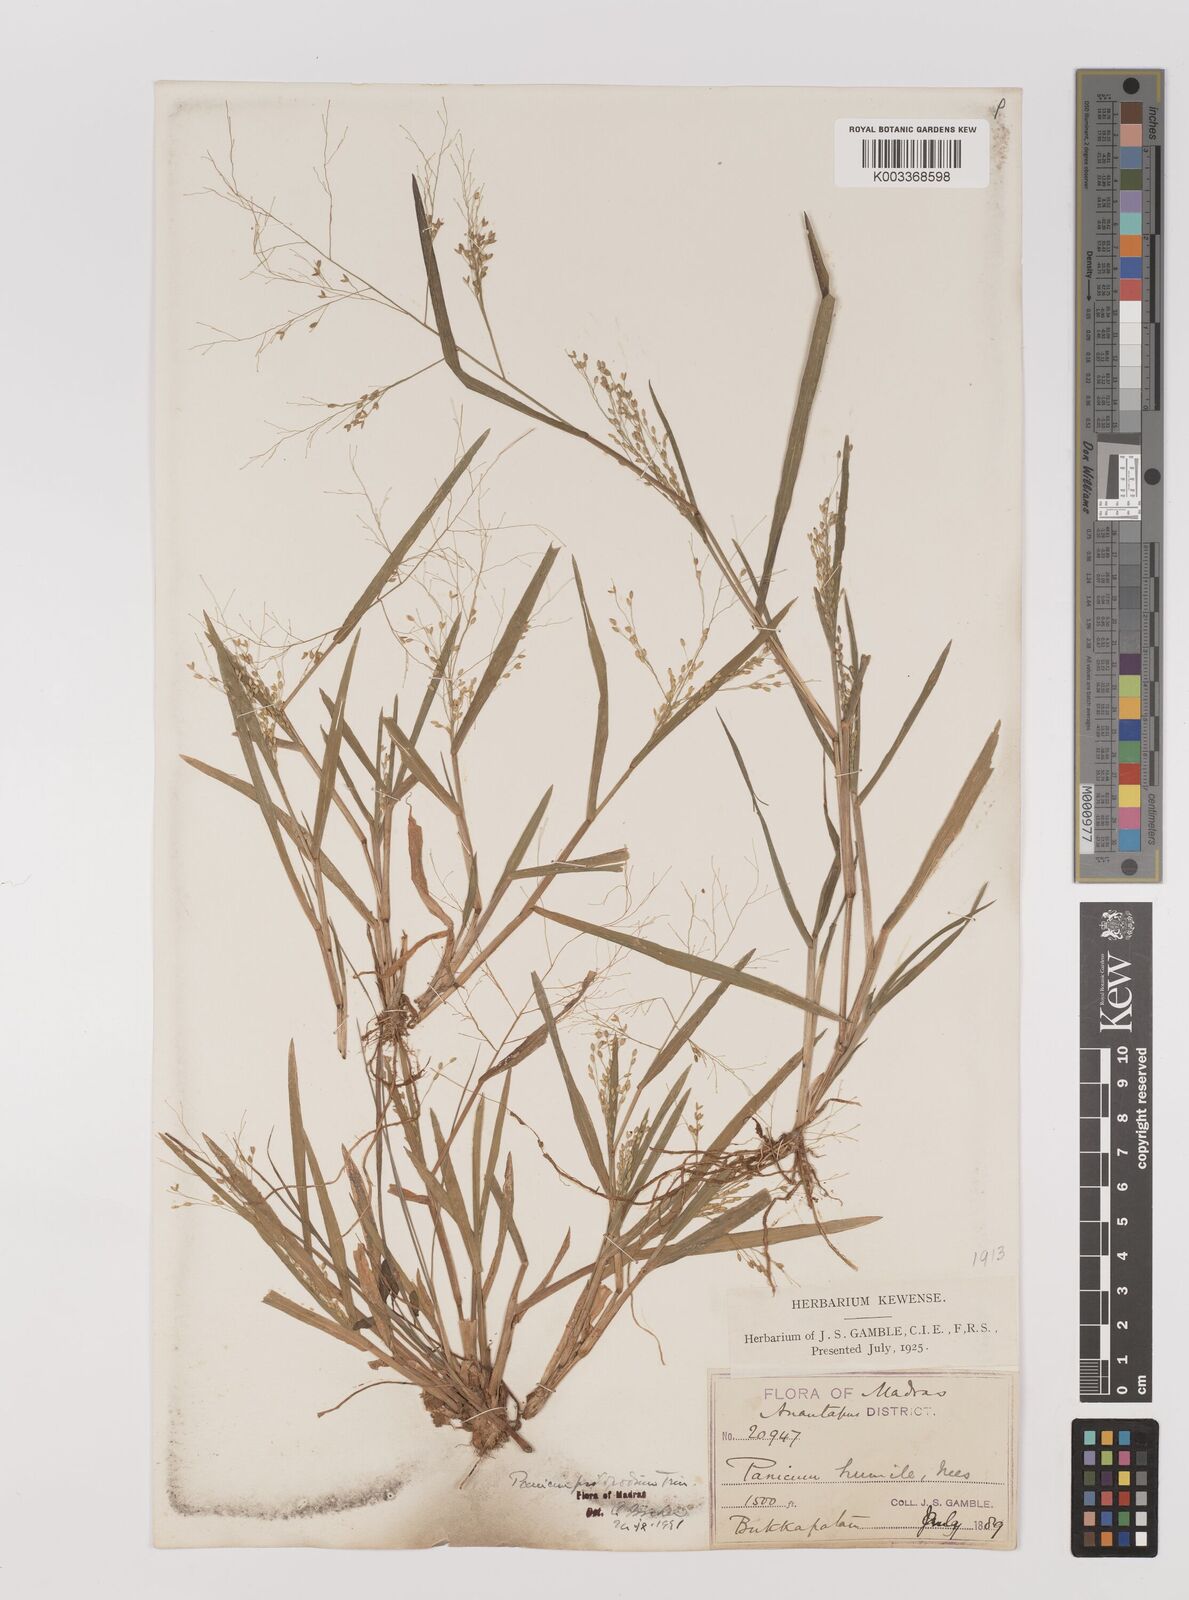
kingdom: Plantae
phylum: Tracheophyta
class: Liliopsida
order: Poales
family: Poaceae
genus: Panicum
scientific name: Panicum sumatrense
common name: Little millet
